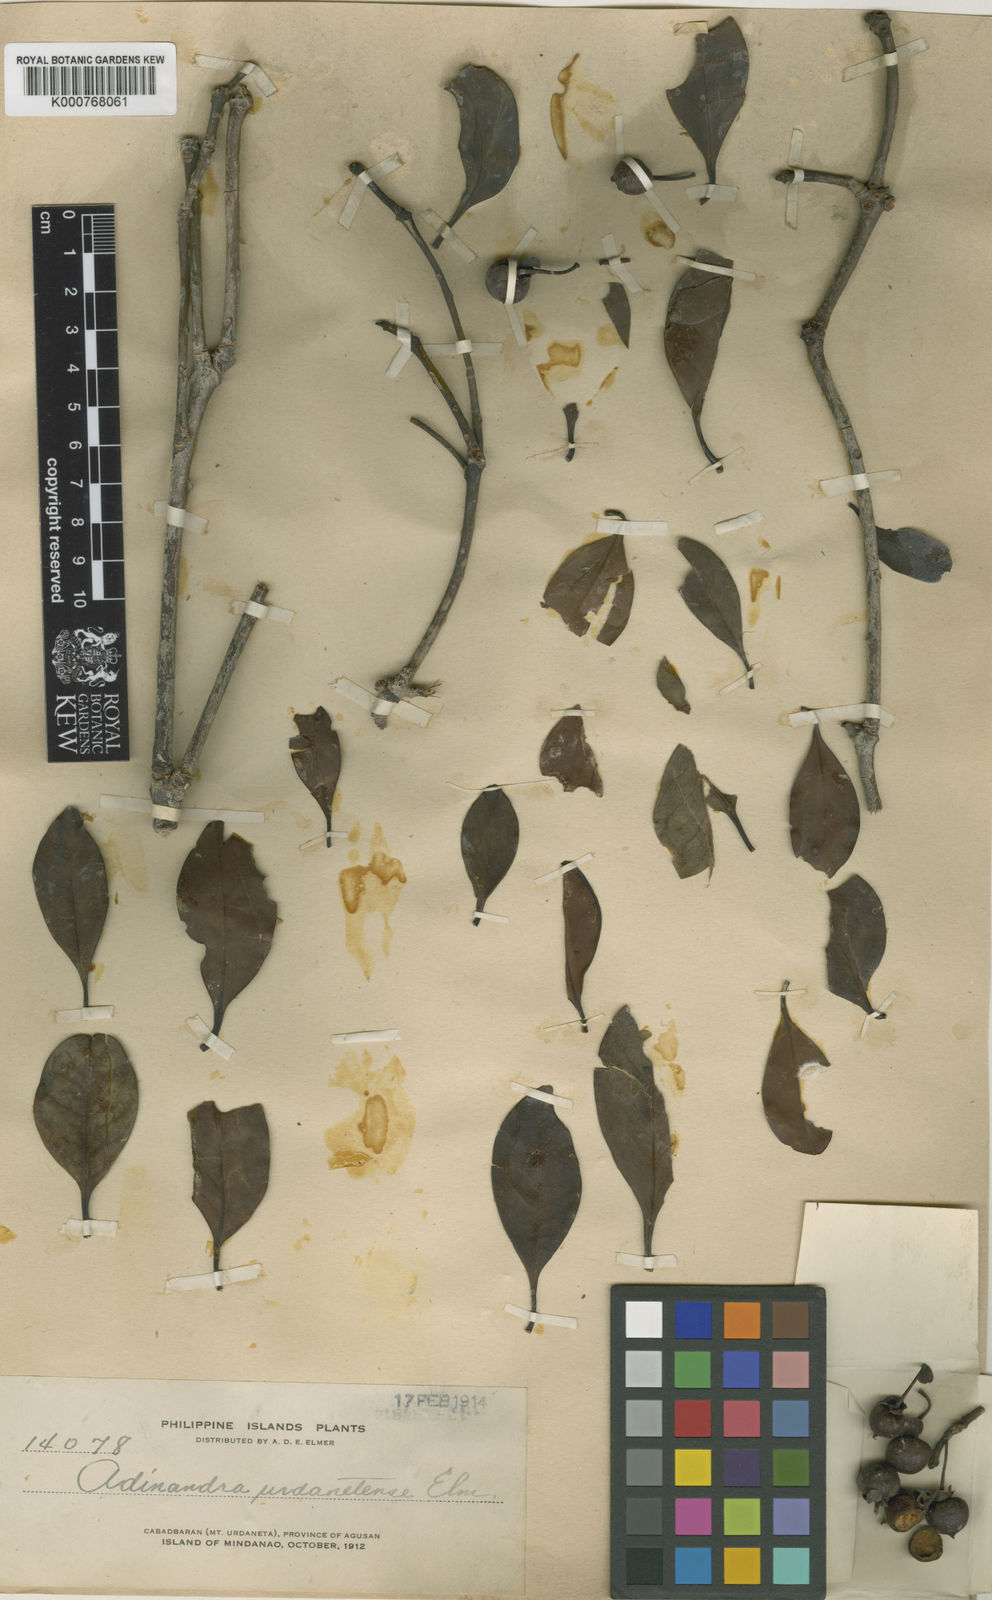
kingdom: Plantae
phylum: Tracheophyta
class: Magnoliopsida
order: Ericales
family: Pentaphylacaceae
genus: Ternstroemia
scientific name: Ternstroemia urdanetensis
